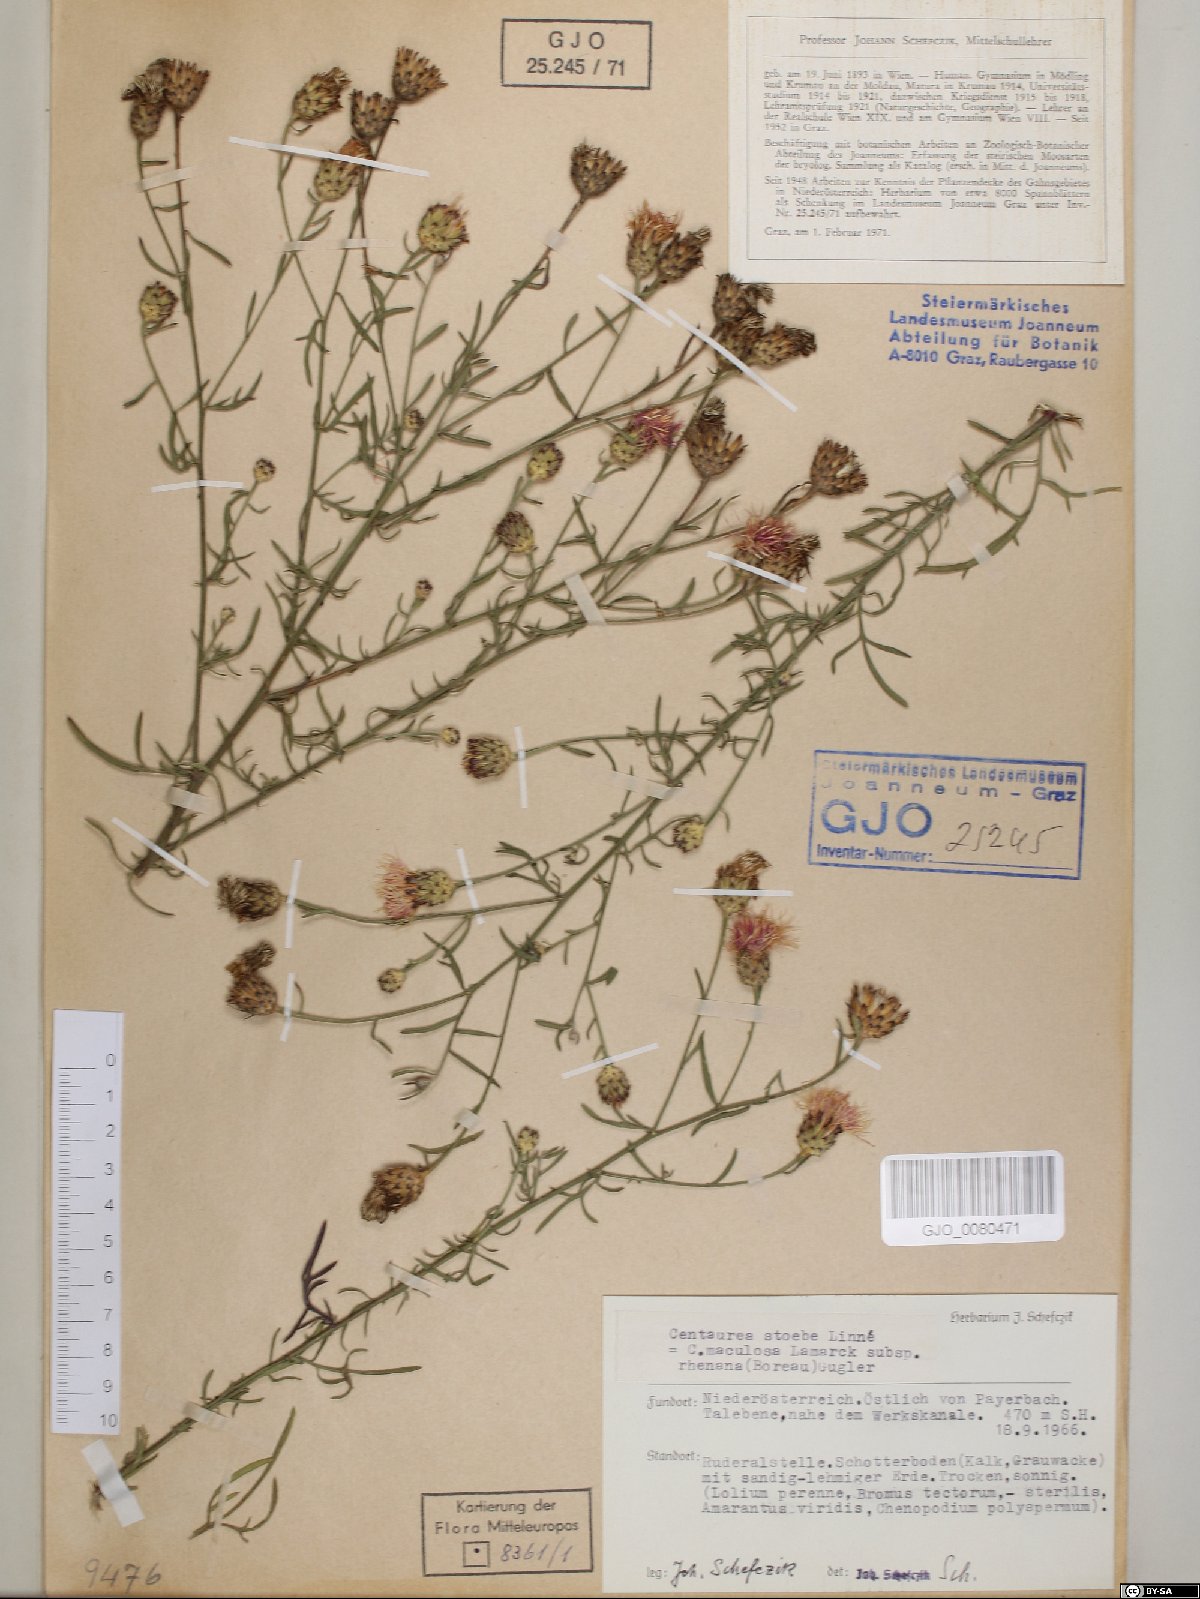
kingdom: Plantae
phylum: Tracheophyta
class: Magnoliopsida
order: Asterales
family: Asteraceae
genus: Centaurea
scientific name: Centaurea stoebe
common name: Spotted knapweed
